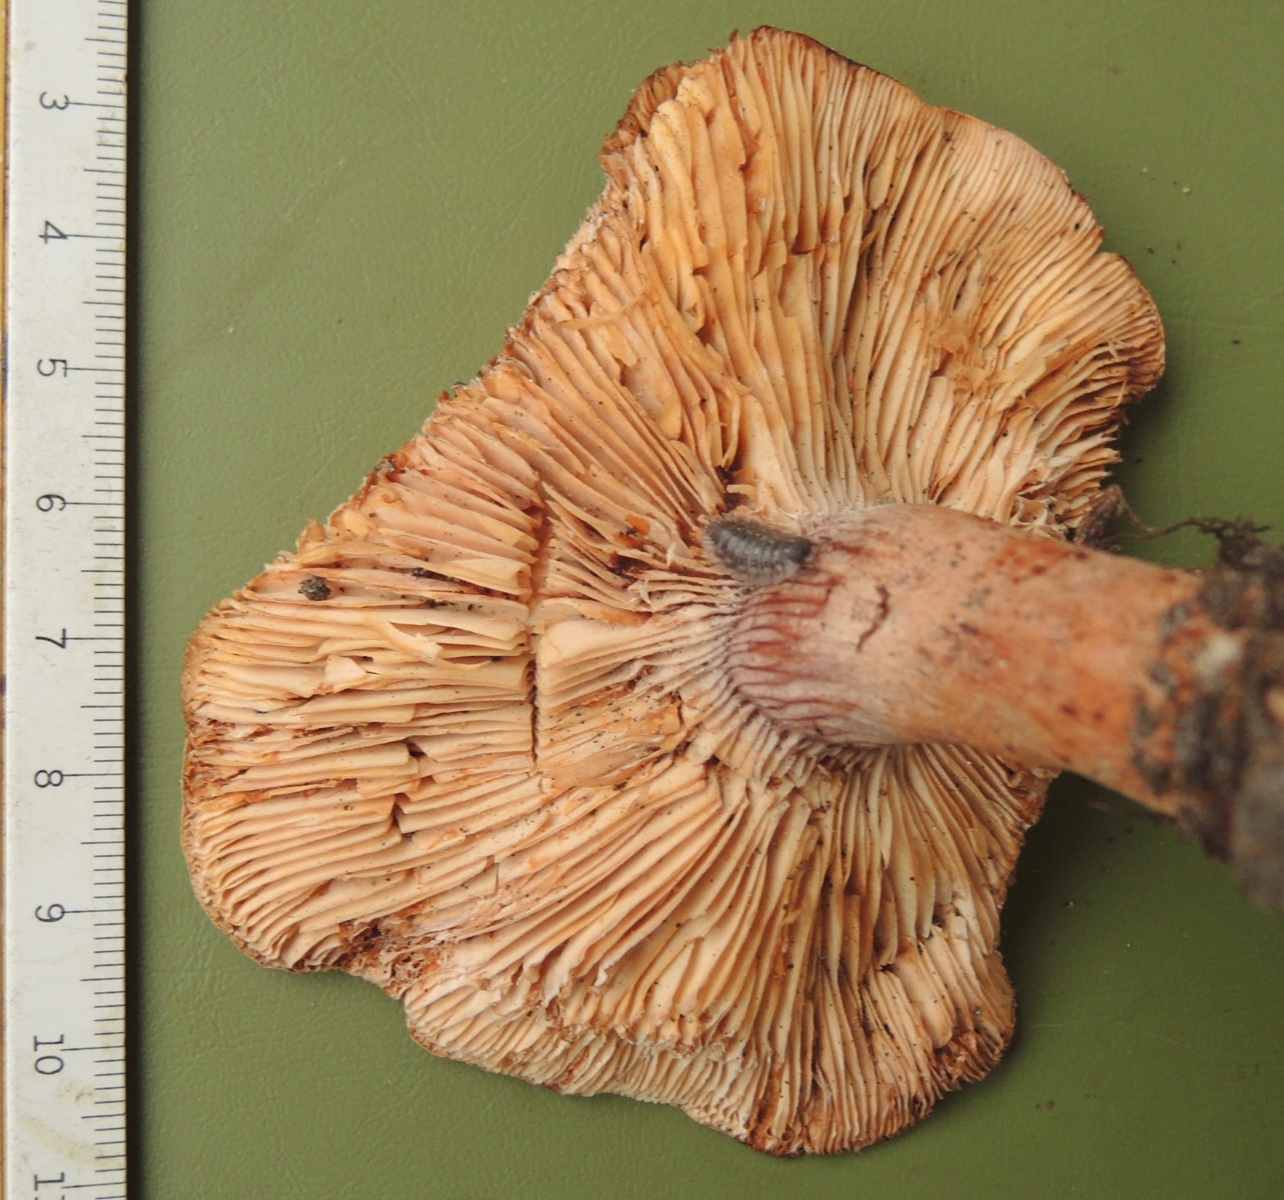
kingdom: Fungi
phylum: Basidiomycota
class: Agaricomycetes
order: Russulales
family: Russulaceae
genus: Lactarius
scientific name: Lactarius rubrocinctus
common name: halsbånd-mælkehat
